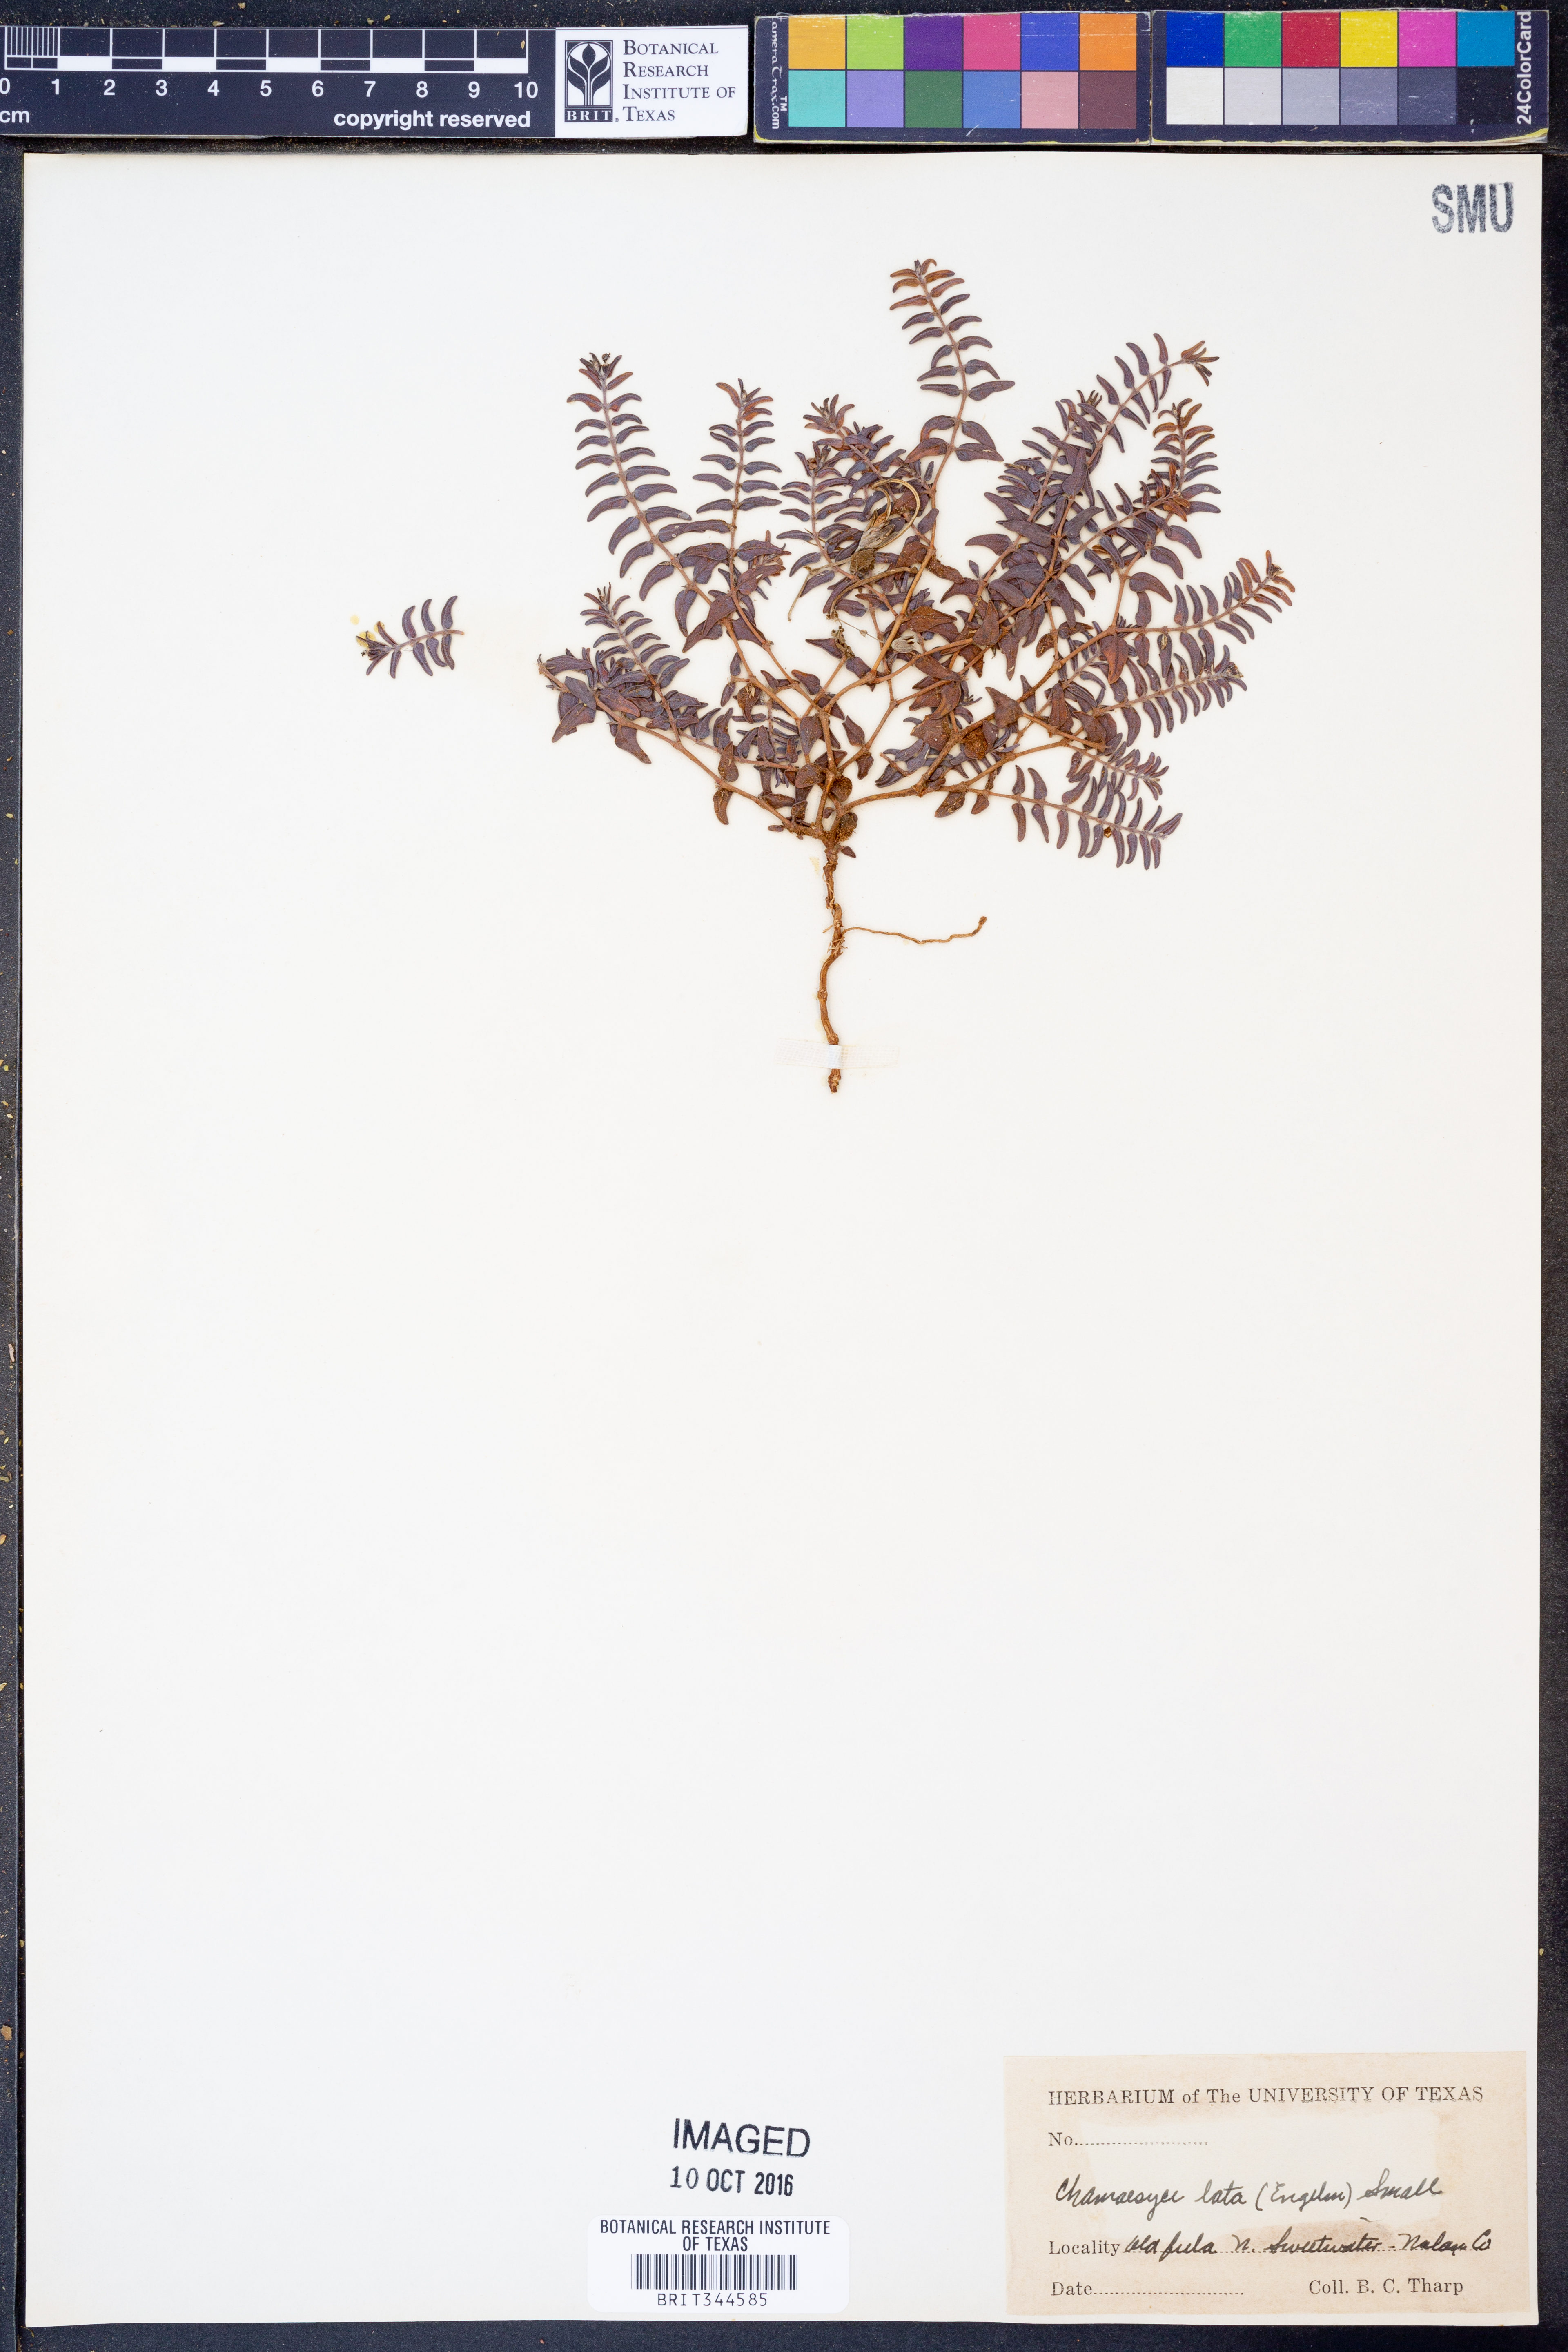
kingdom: Plantae
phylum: Tracheophyta
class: Magnoliopsida
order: Malpighiales
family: Euphorbiaceae
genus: Euphorbia
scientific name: Euphorbia lata
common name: Hoary euphorbia
